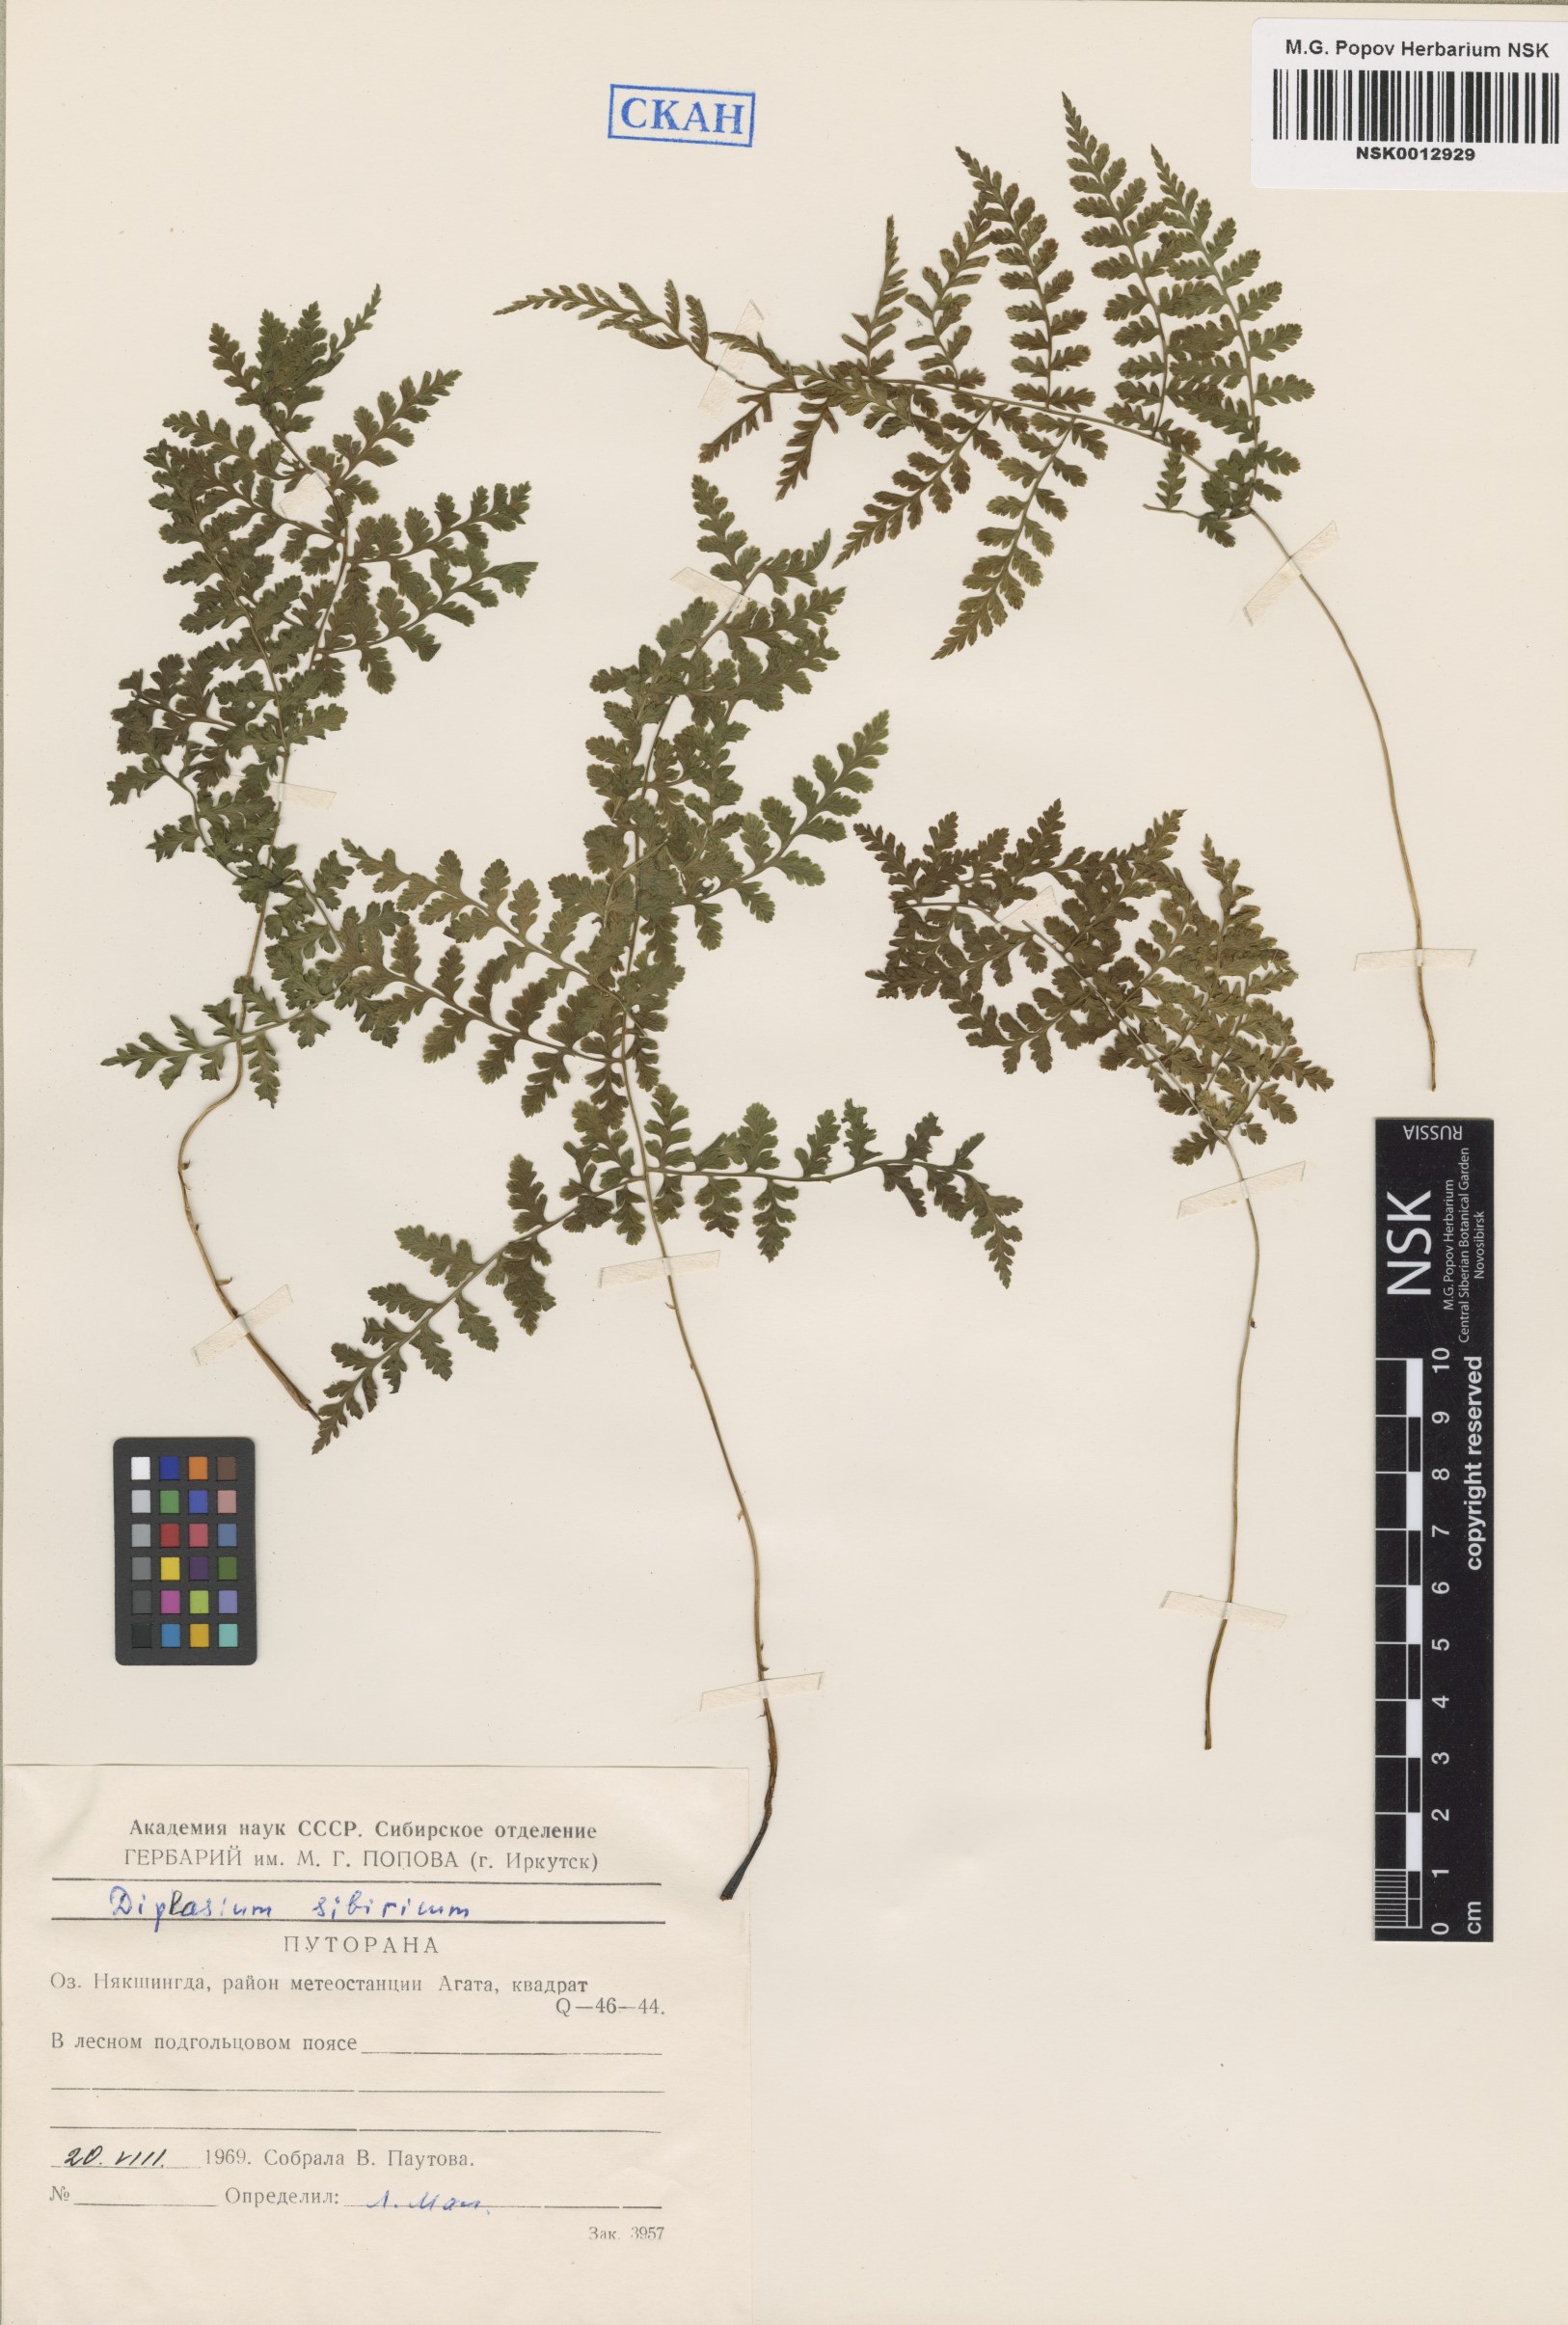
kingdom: Plantae
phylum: Tracheophyta
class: Polypodiopsida
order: Polypodiales
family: Athyriaceae
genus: Diplazium
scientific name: Diplazium sibiricum
